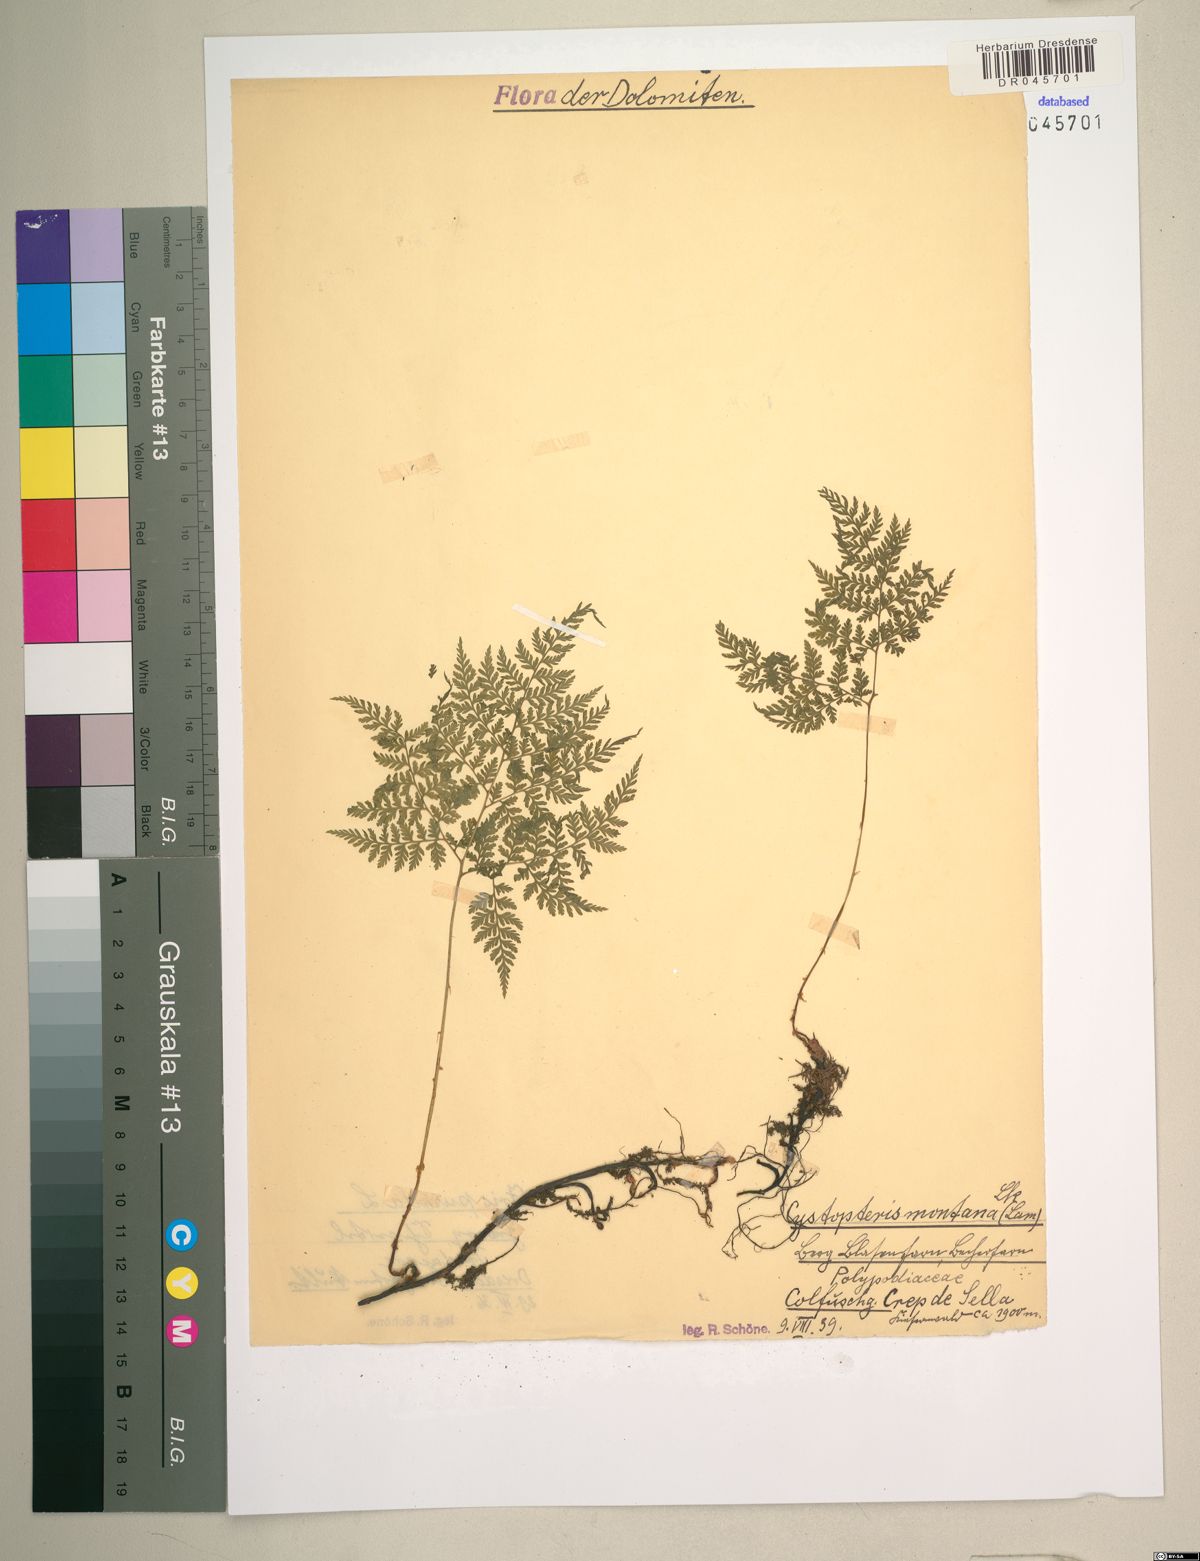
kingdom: Plantae
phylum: Tracheophyta
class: Polypodiopsida
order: Polypodiales
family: Cystopteridaceae
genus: Cystopteris
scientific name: Cystopteris montana
